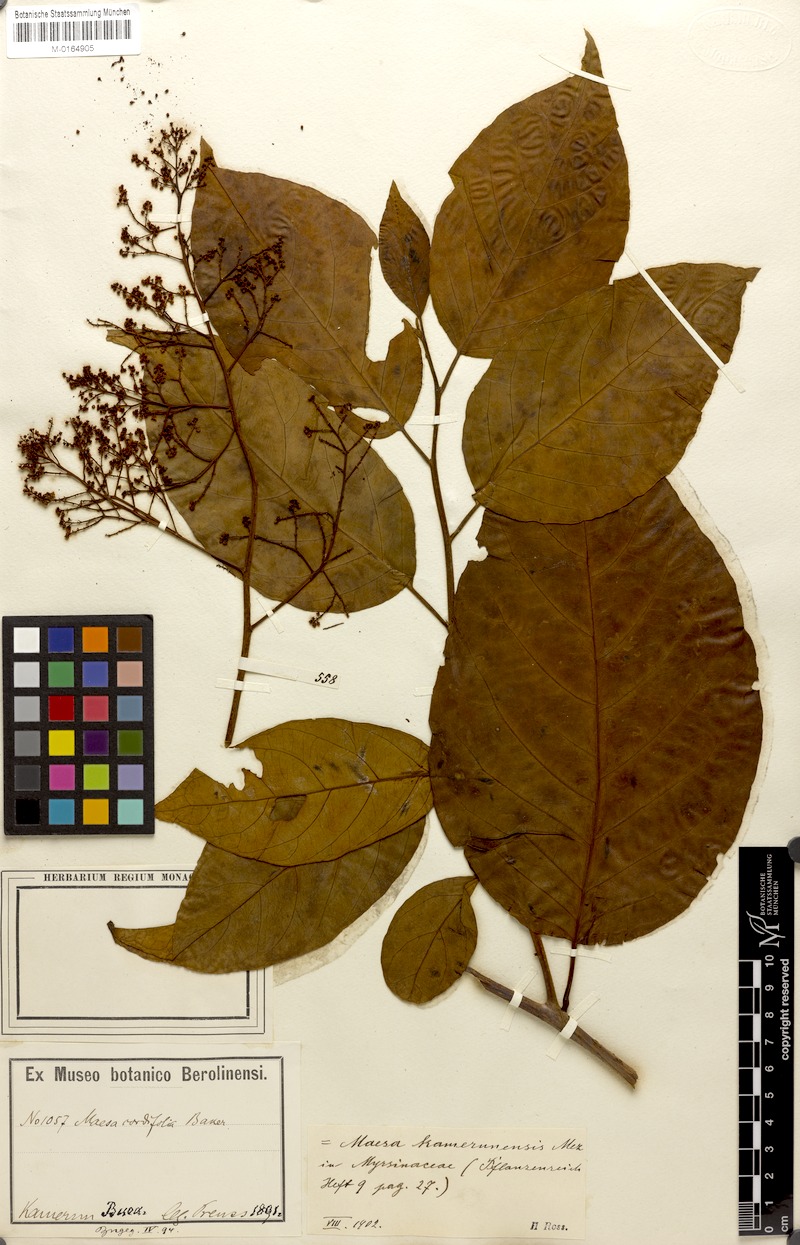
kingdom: Plantae
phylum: Tracheophyta
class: Magnoliopsida
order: Ericales
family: Primulaceae
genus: Maesa
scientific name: Maesa kamerunensis
